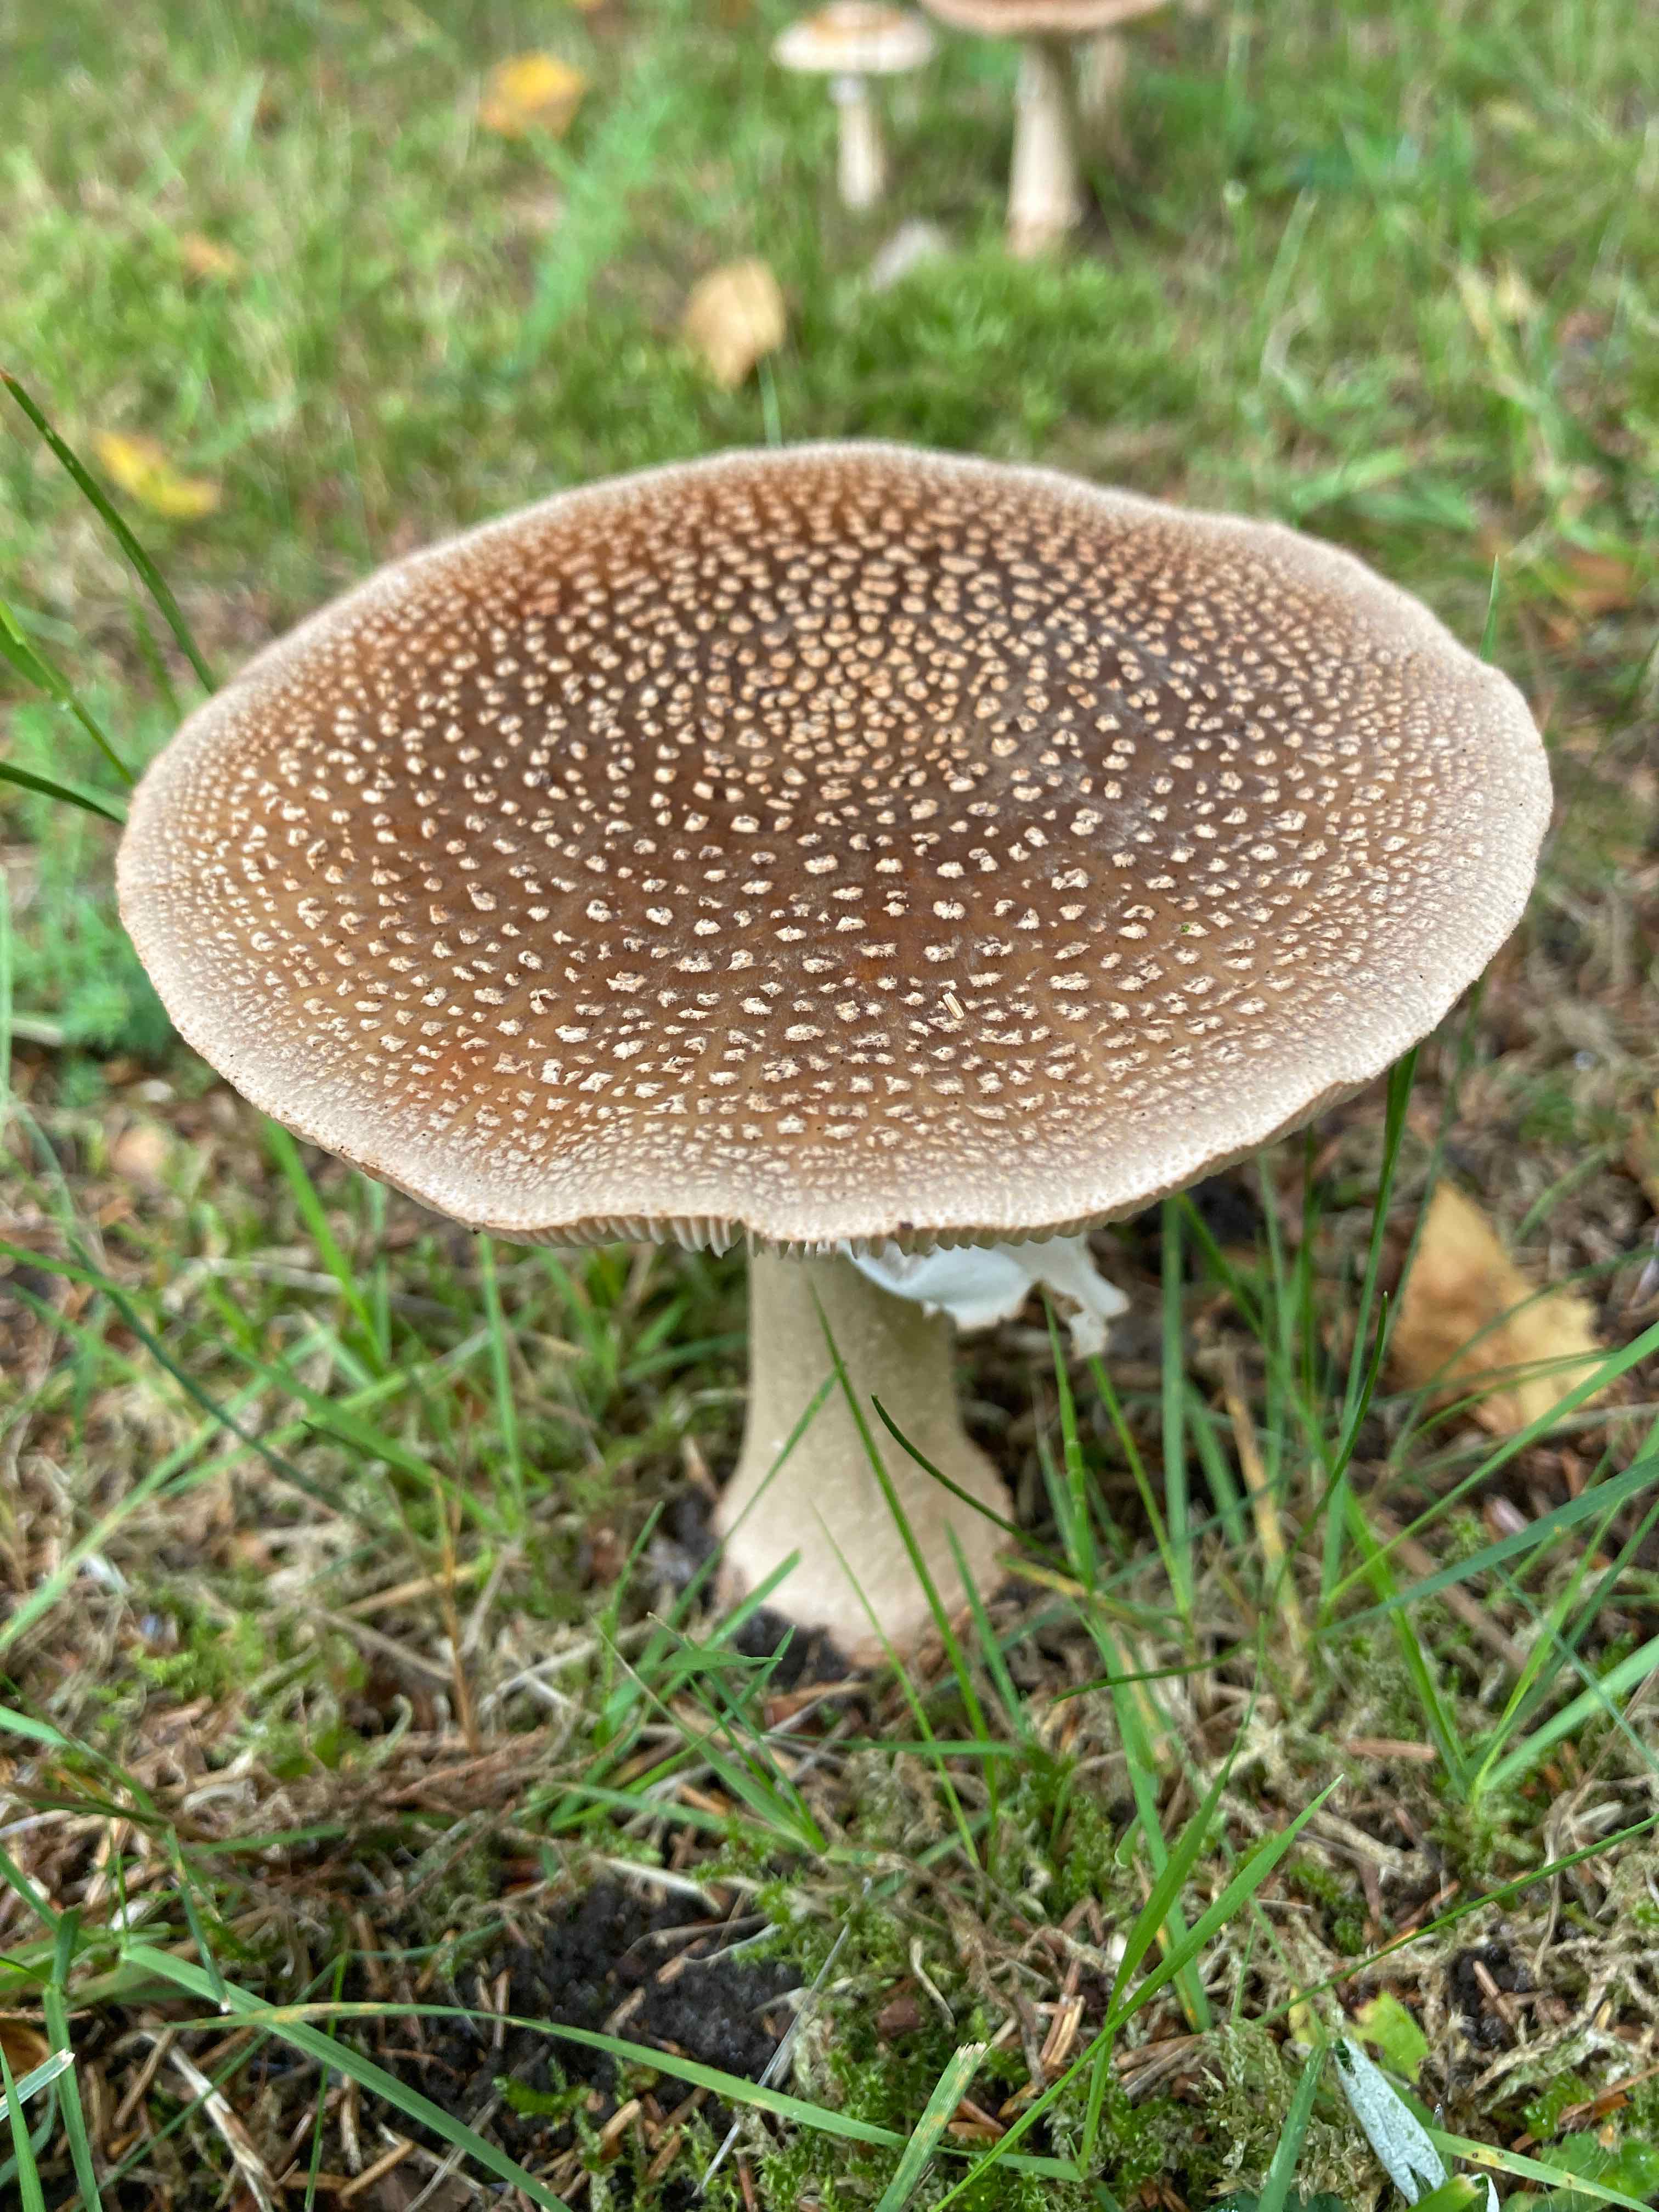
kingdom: Fungi
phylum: Basidiomycota
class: Agaricomycetes
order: Agaricales
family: Amanitaceae
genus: Amanita
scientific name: Amanita rubescens
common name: rødmende fluesvamp
